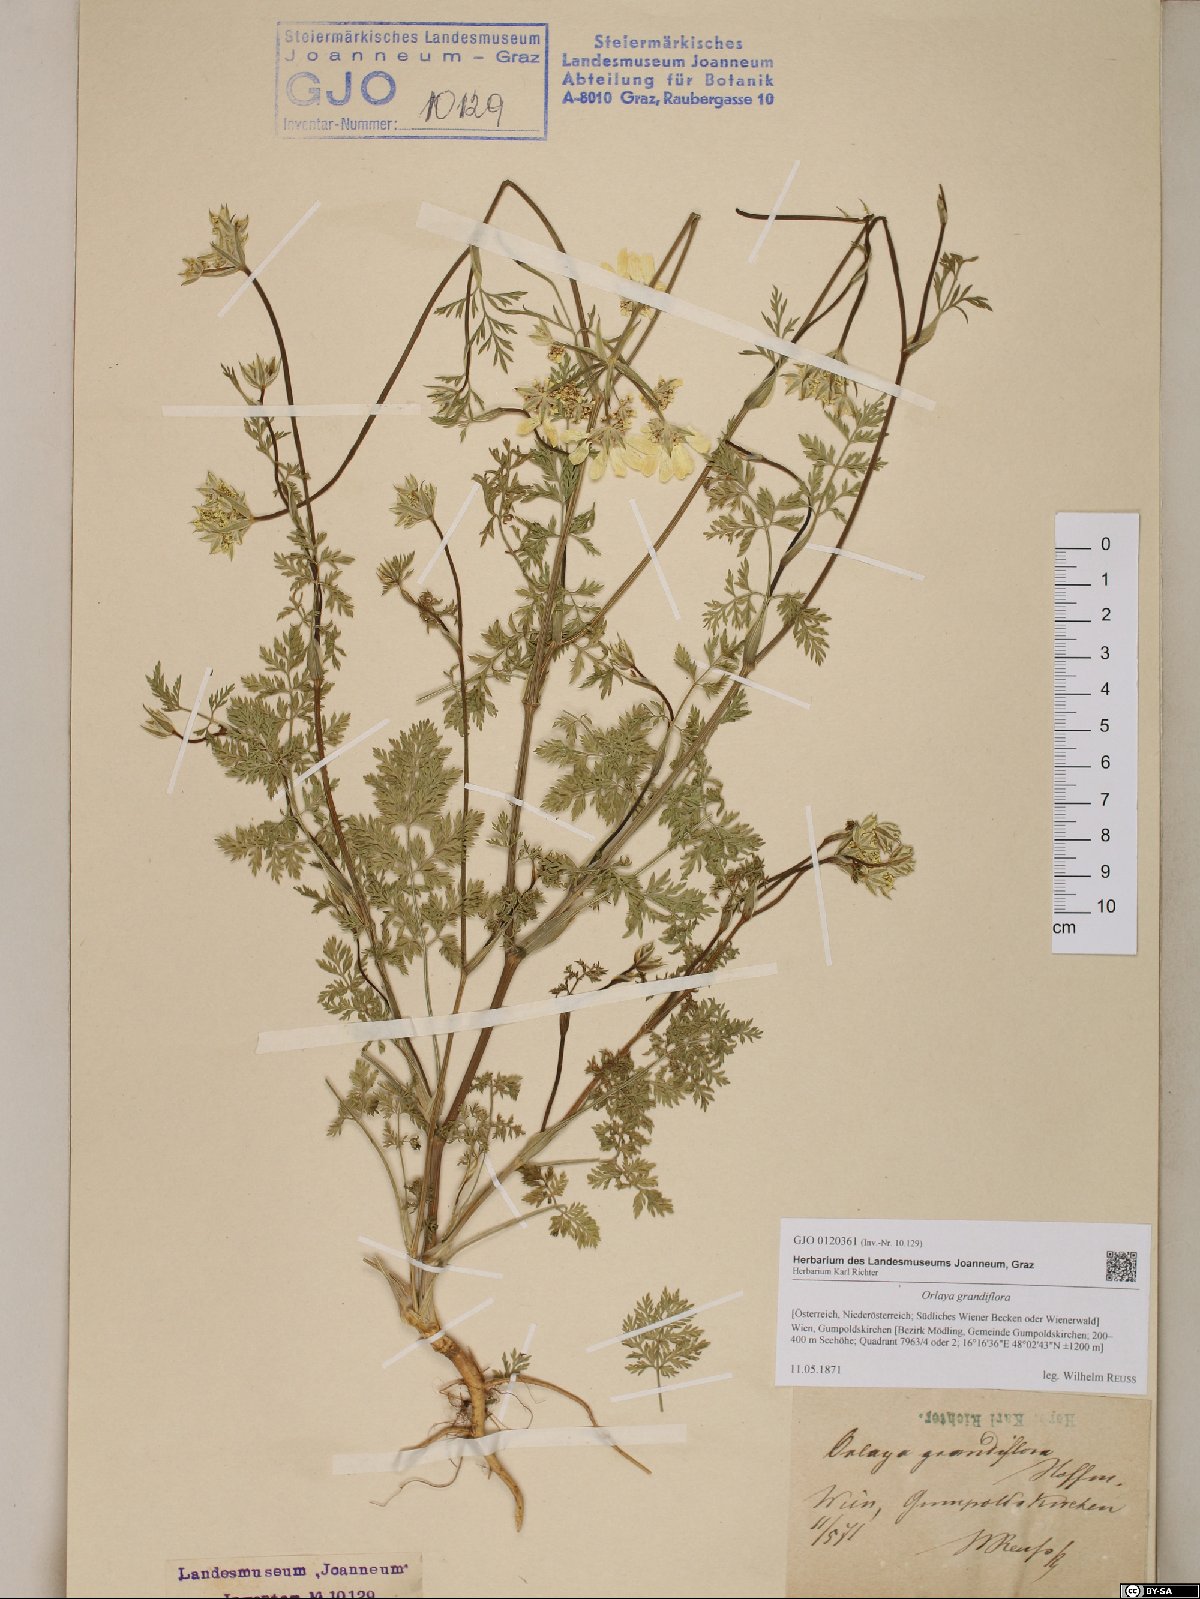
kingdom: Plantae
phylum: Tracheophyta
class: Magnoliopsida
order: Apiales
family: Apiaceae
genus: Orlaya
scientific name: Orlaya grandiflora
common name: White lace flower
